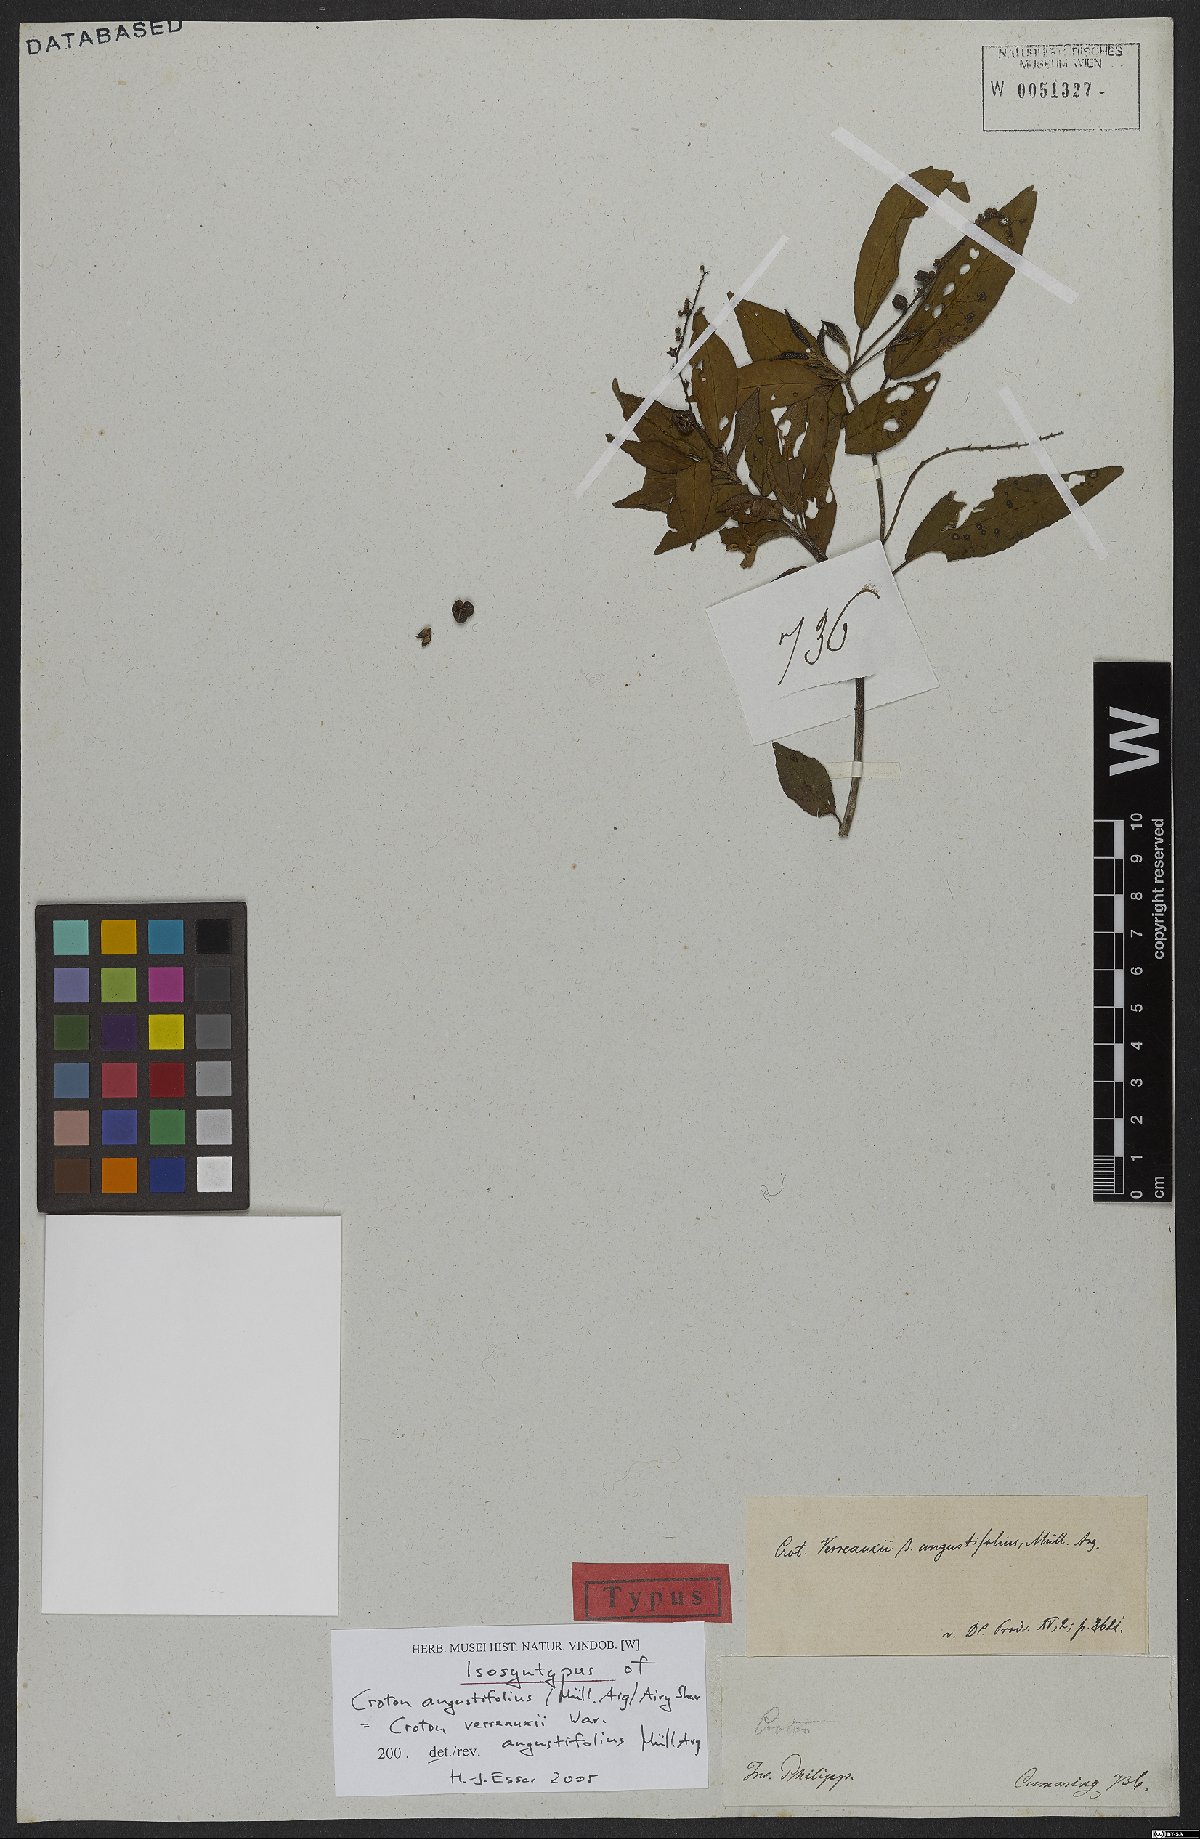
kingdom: Plantae
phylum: Tracheophyta
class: Magnoliopsida
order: Malpighiales
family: Euphorbiaceae
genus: Croton
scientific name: Croton verreauxii
